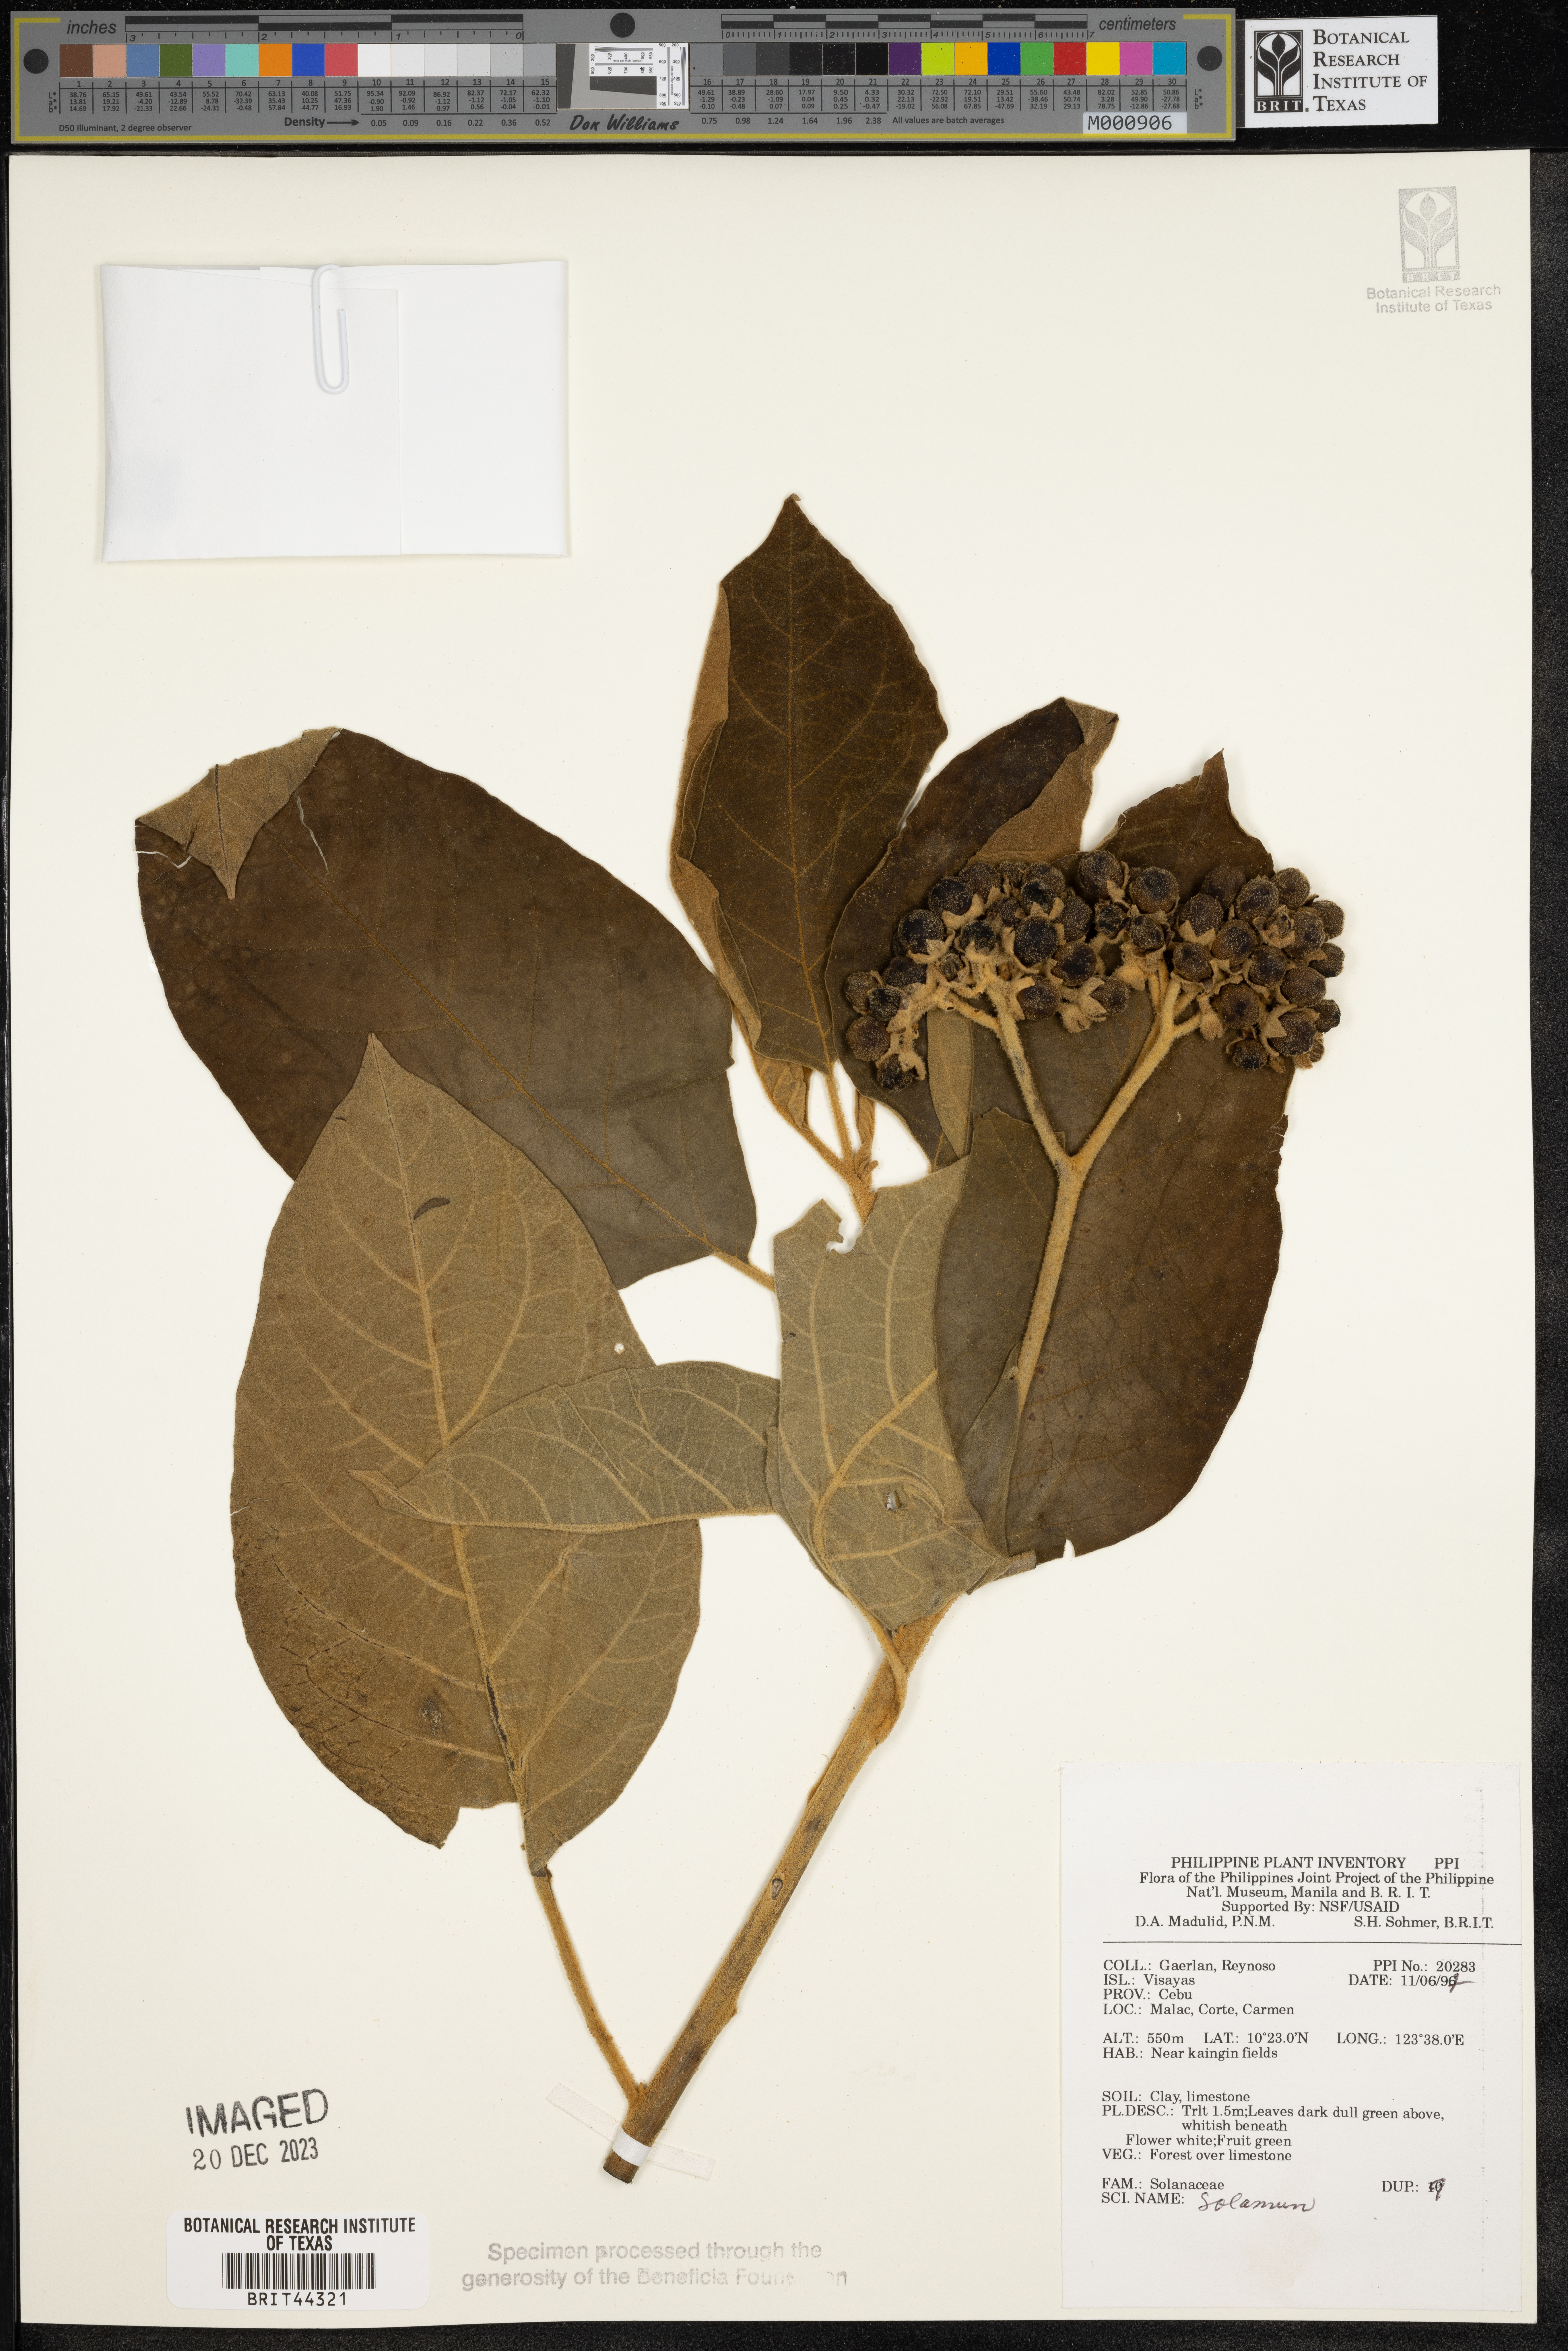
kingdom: Plantae
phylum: Tracheophyta
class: Magnoliopsida
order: Solanales
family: Solanaceae
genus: Solanum
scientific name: Solanum
